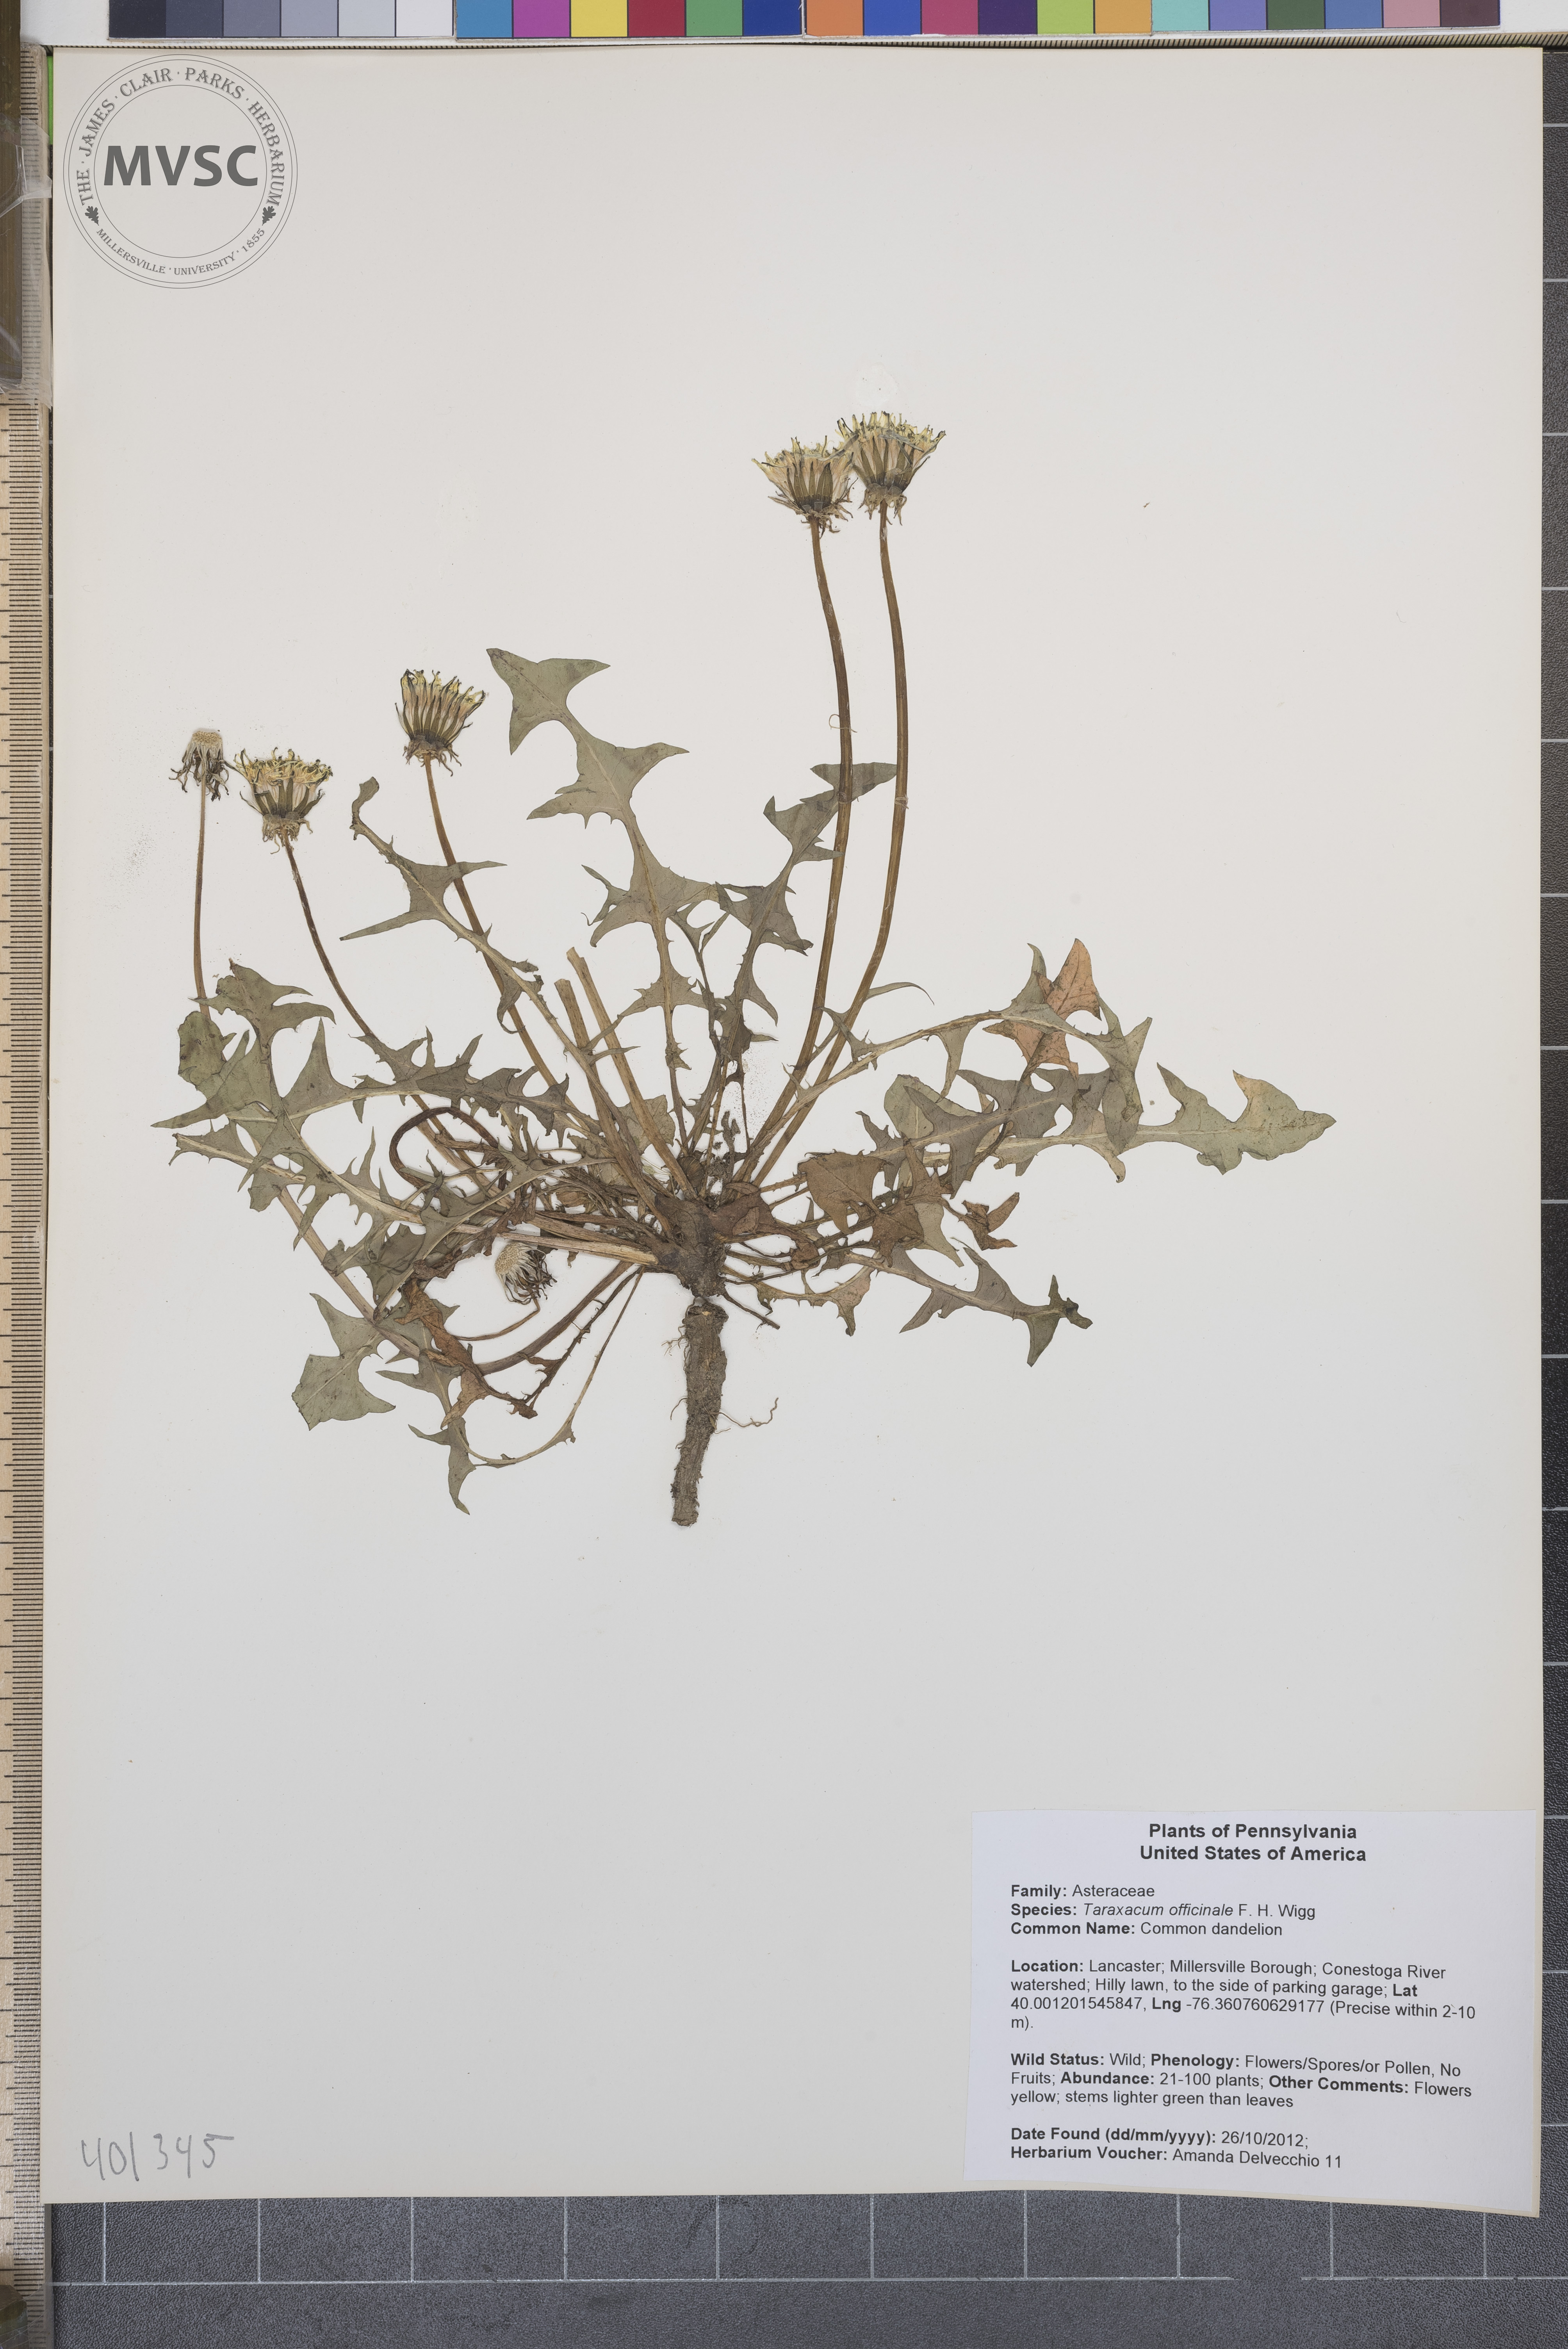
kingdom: Plantae
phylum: Tracheophyta
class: Magnoliopsida
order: Asterales
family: Asteraceae
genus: Taraxacum
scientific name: Taraxacum officinale
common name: Common dandelion
